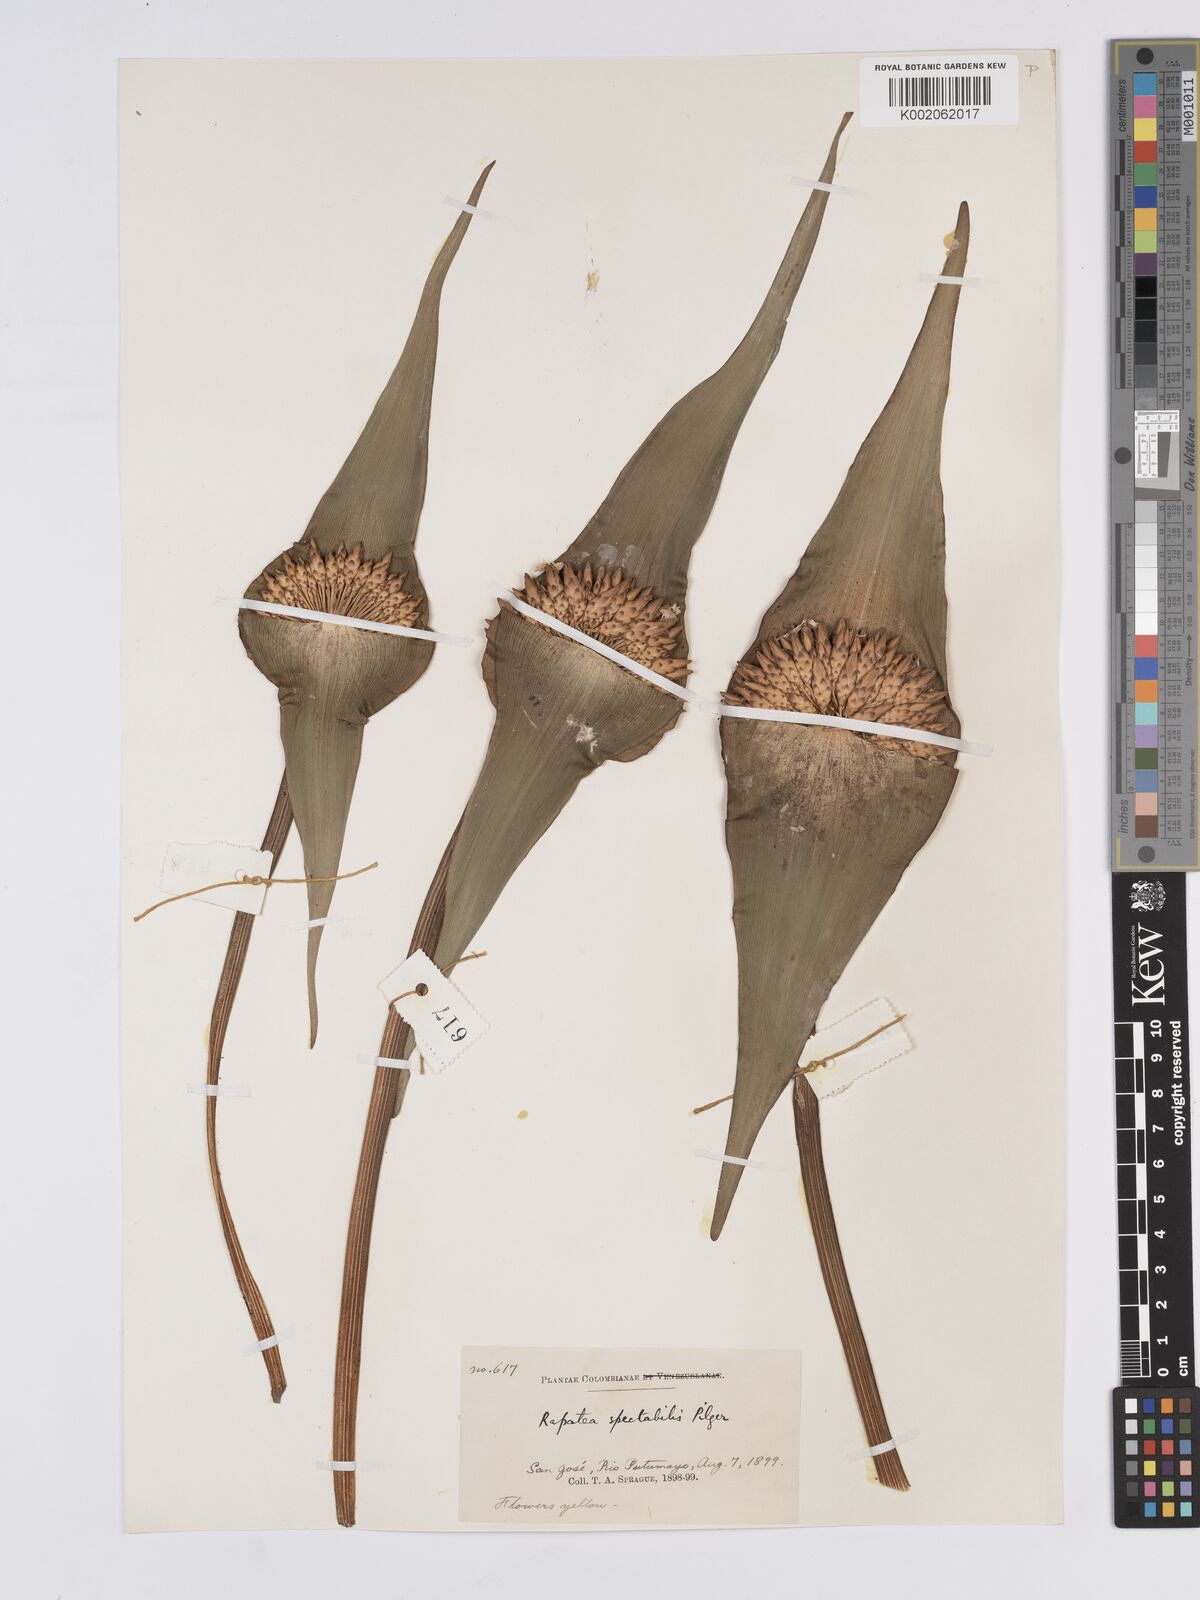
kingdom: Plantae
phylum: Tracheophyta
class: Liliopsida
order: Poales
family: Rapateaceae
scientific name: Rapateaceae
